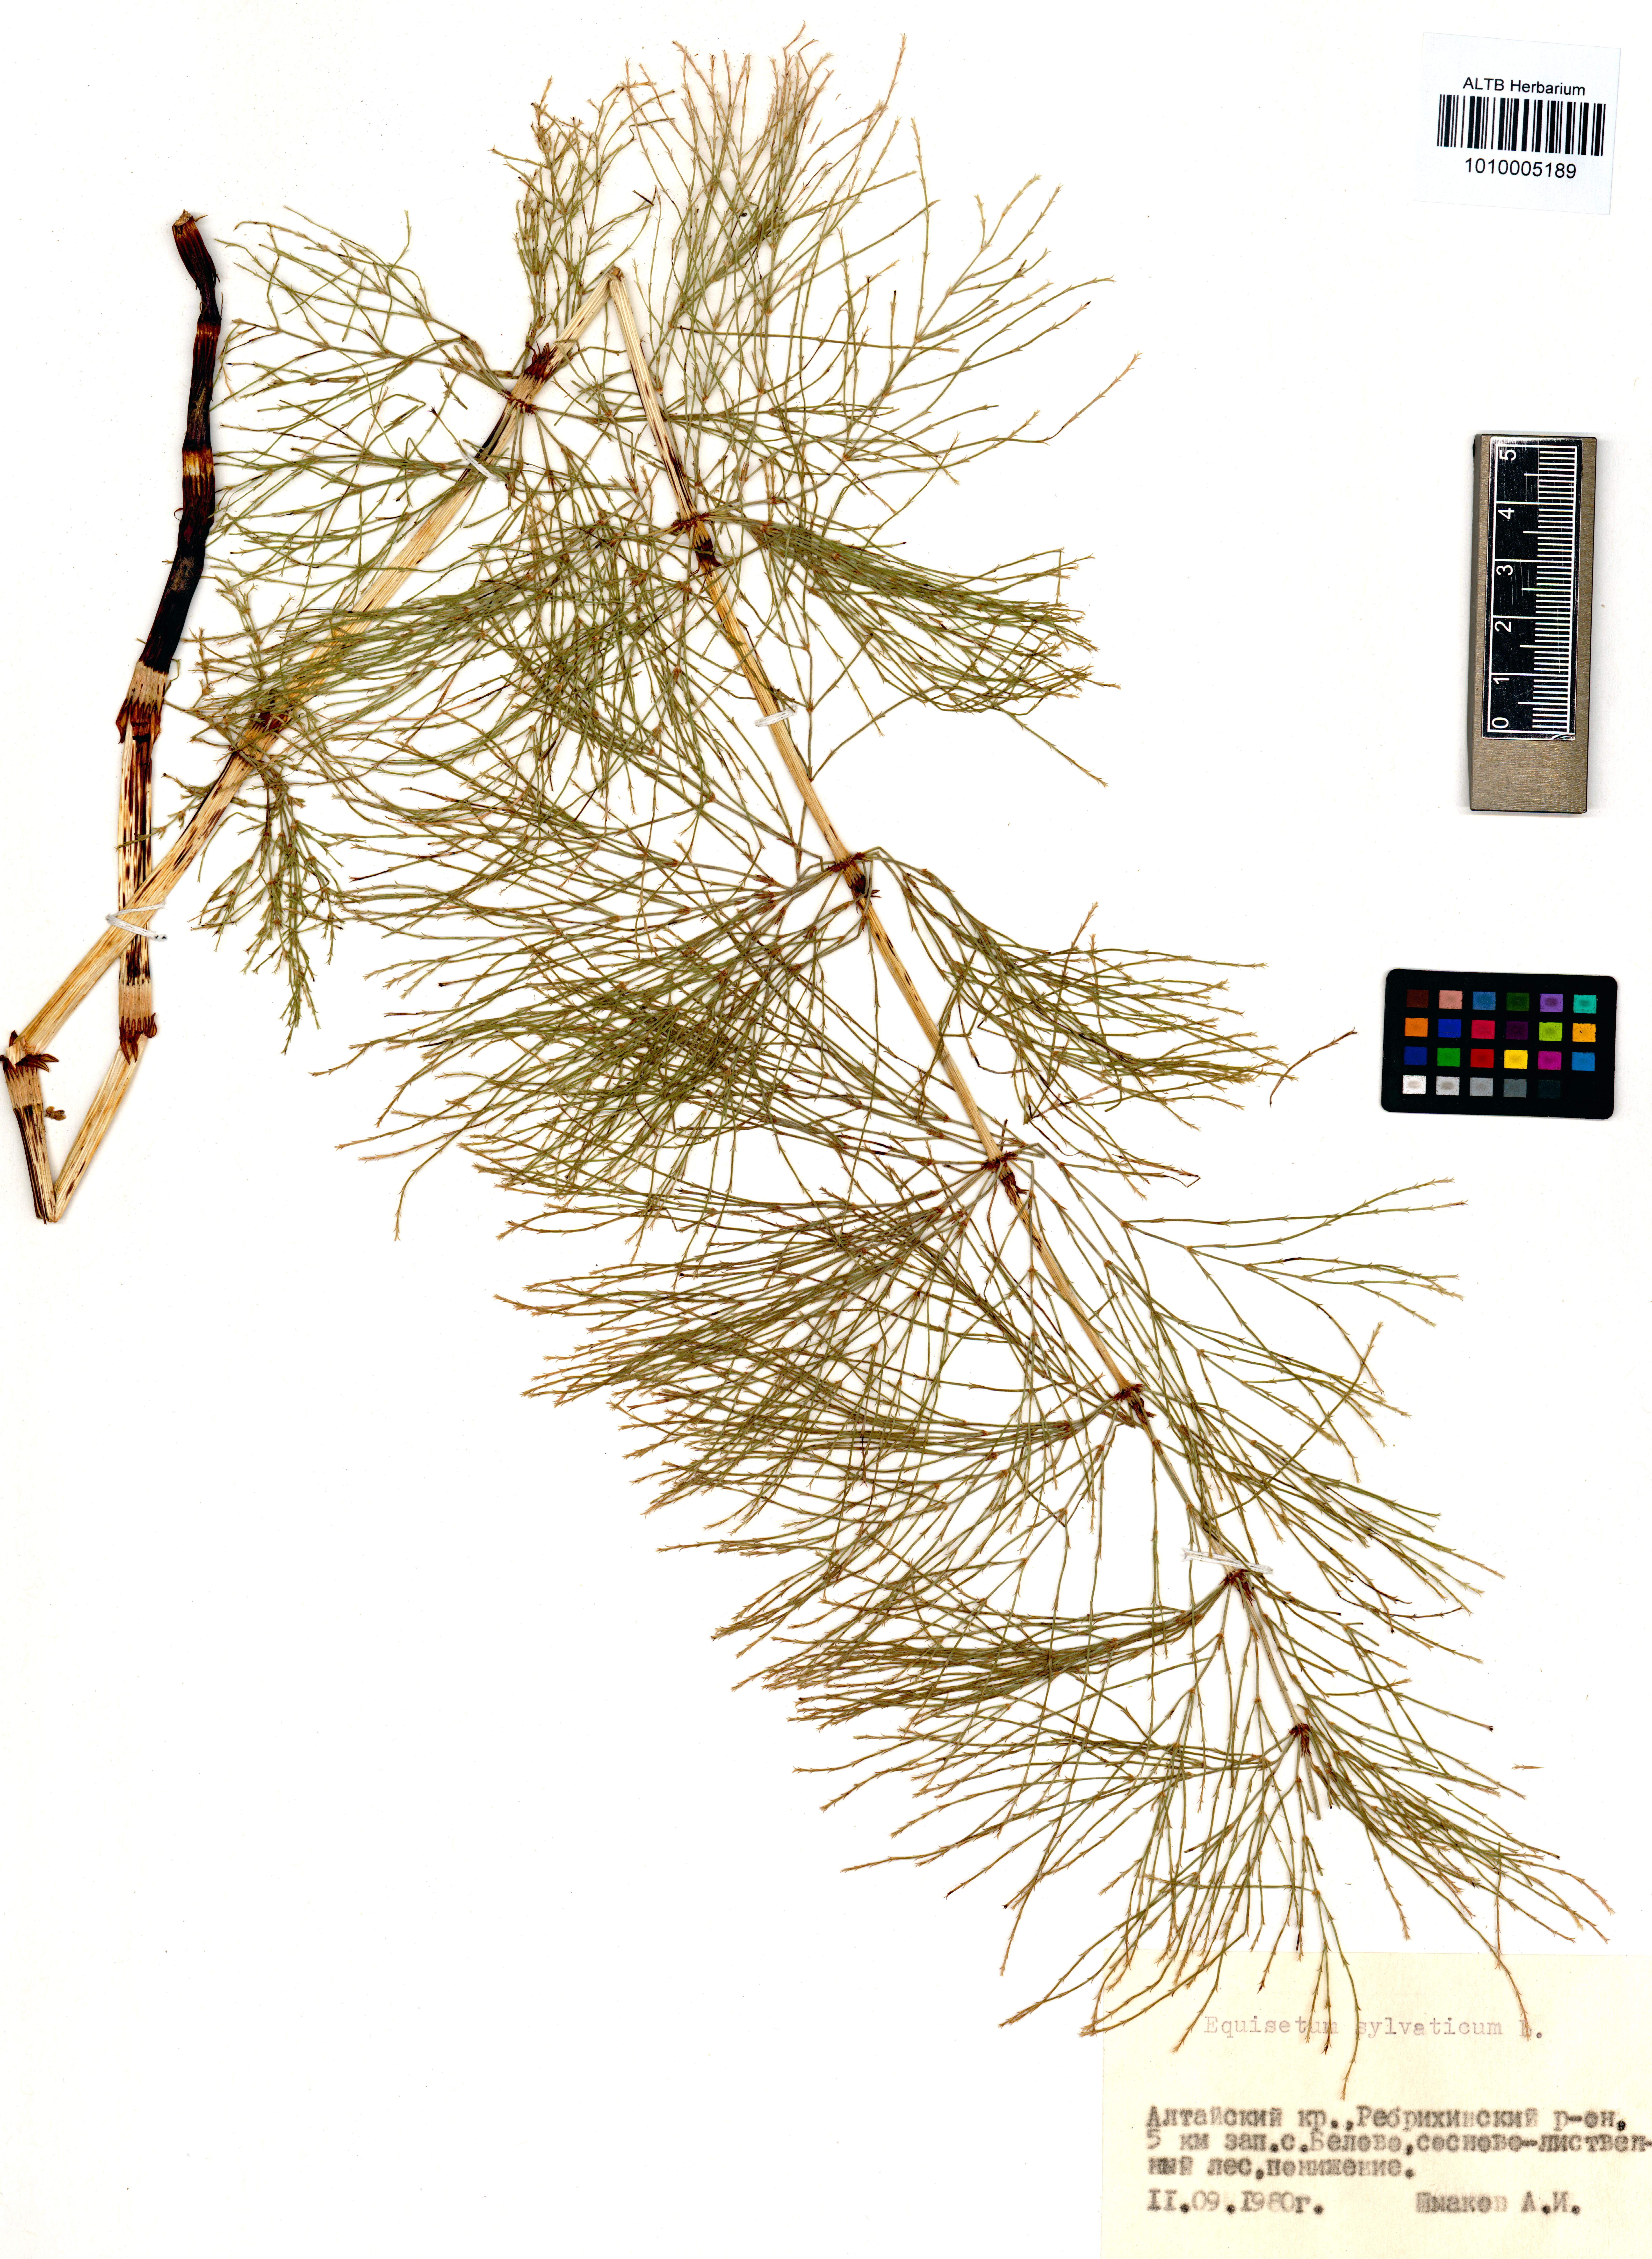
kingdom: Plantae
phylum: Tracheophyta
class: Polypodiopsida
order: Equisetales
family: Equisetaceae
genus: Equisetum
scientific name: Equisetum sylvaticum
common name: Wood horsetail
